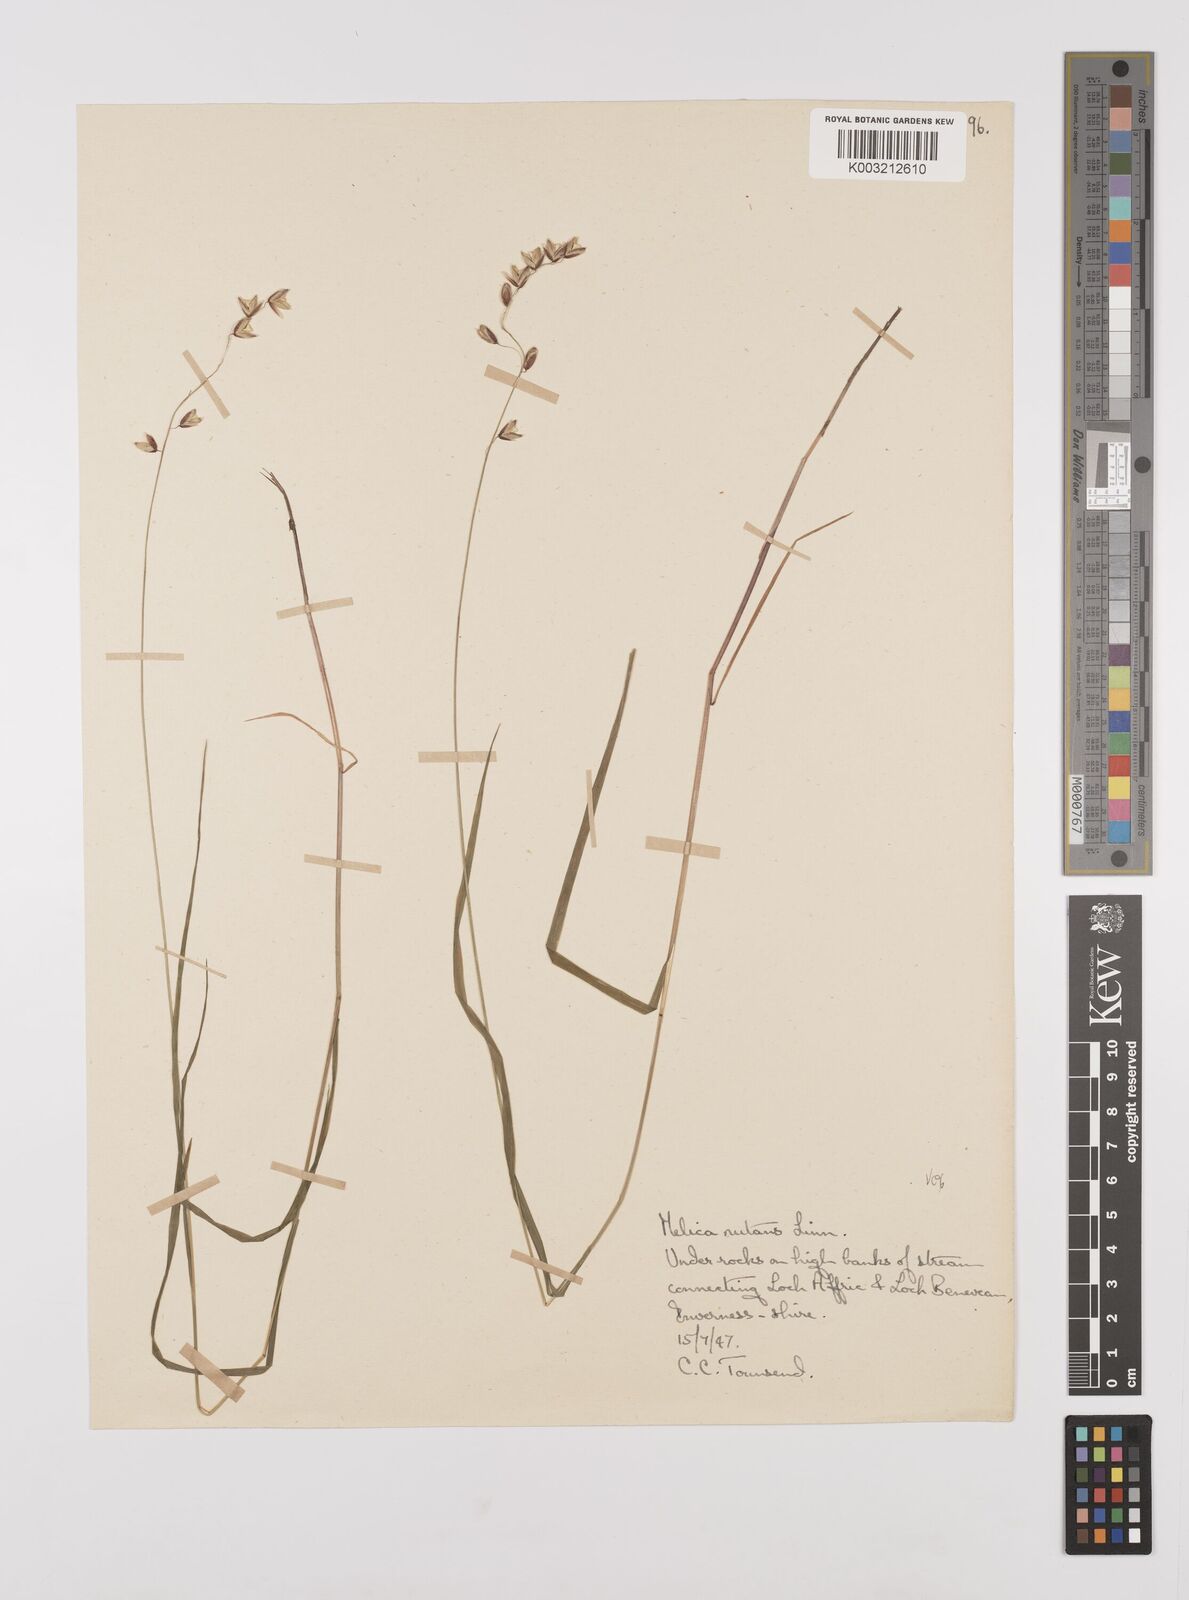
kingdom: Plantae
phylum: Tracheophyta
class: Liliopsida
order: Poales
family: Poaceae
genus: Melica
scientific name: Melica
